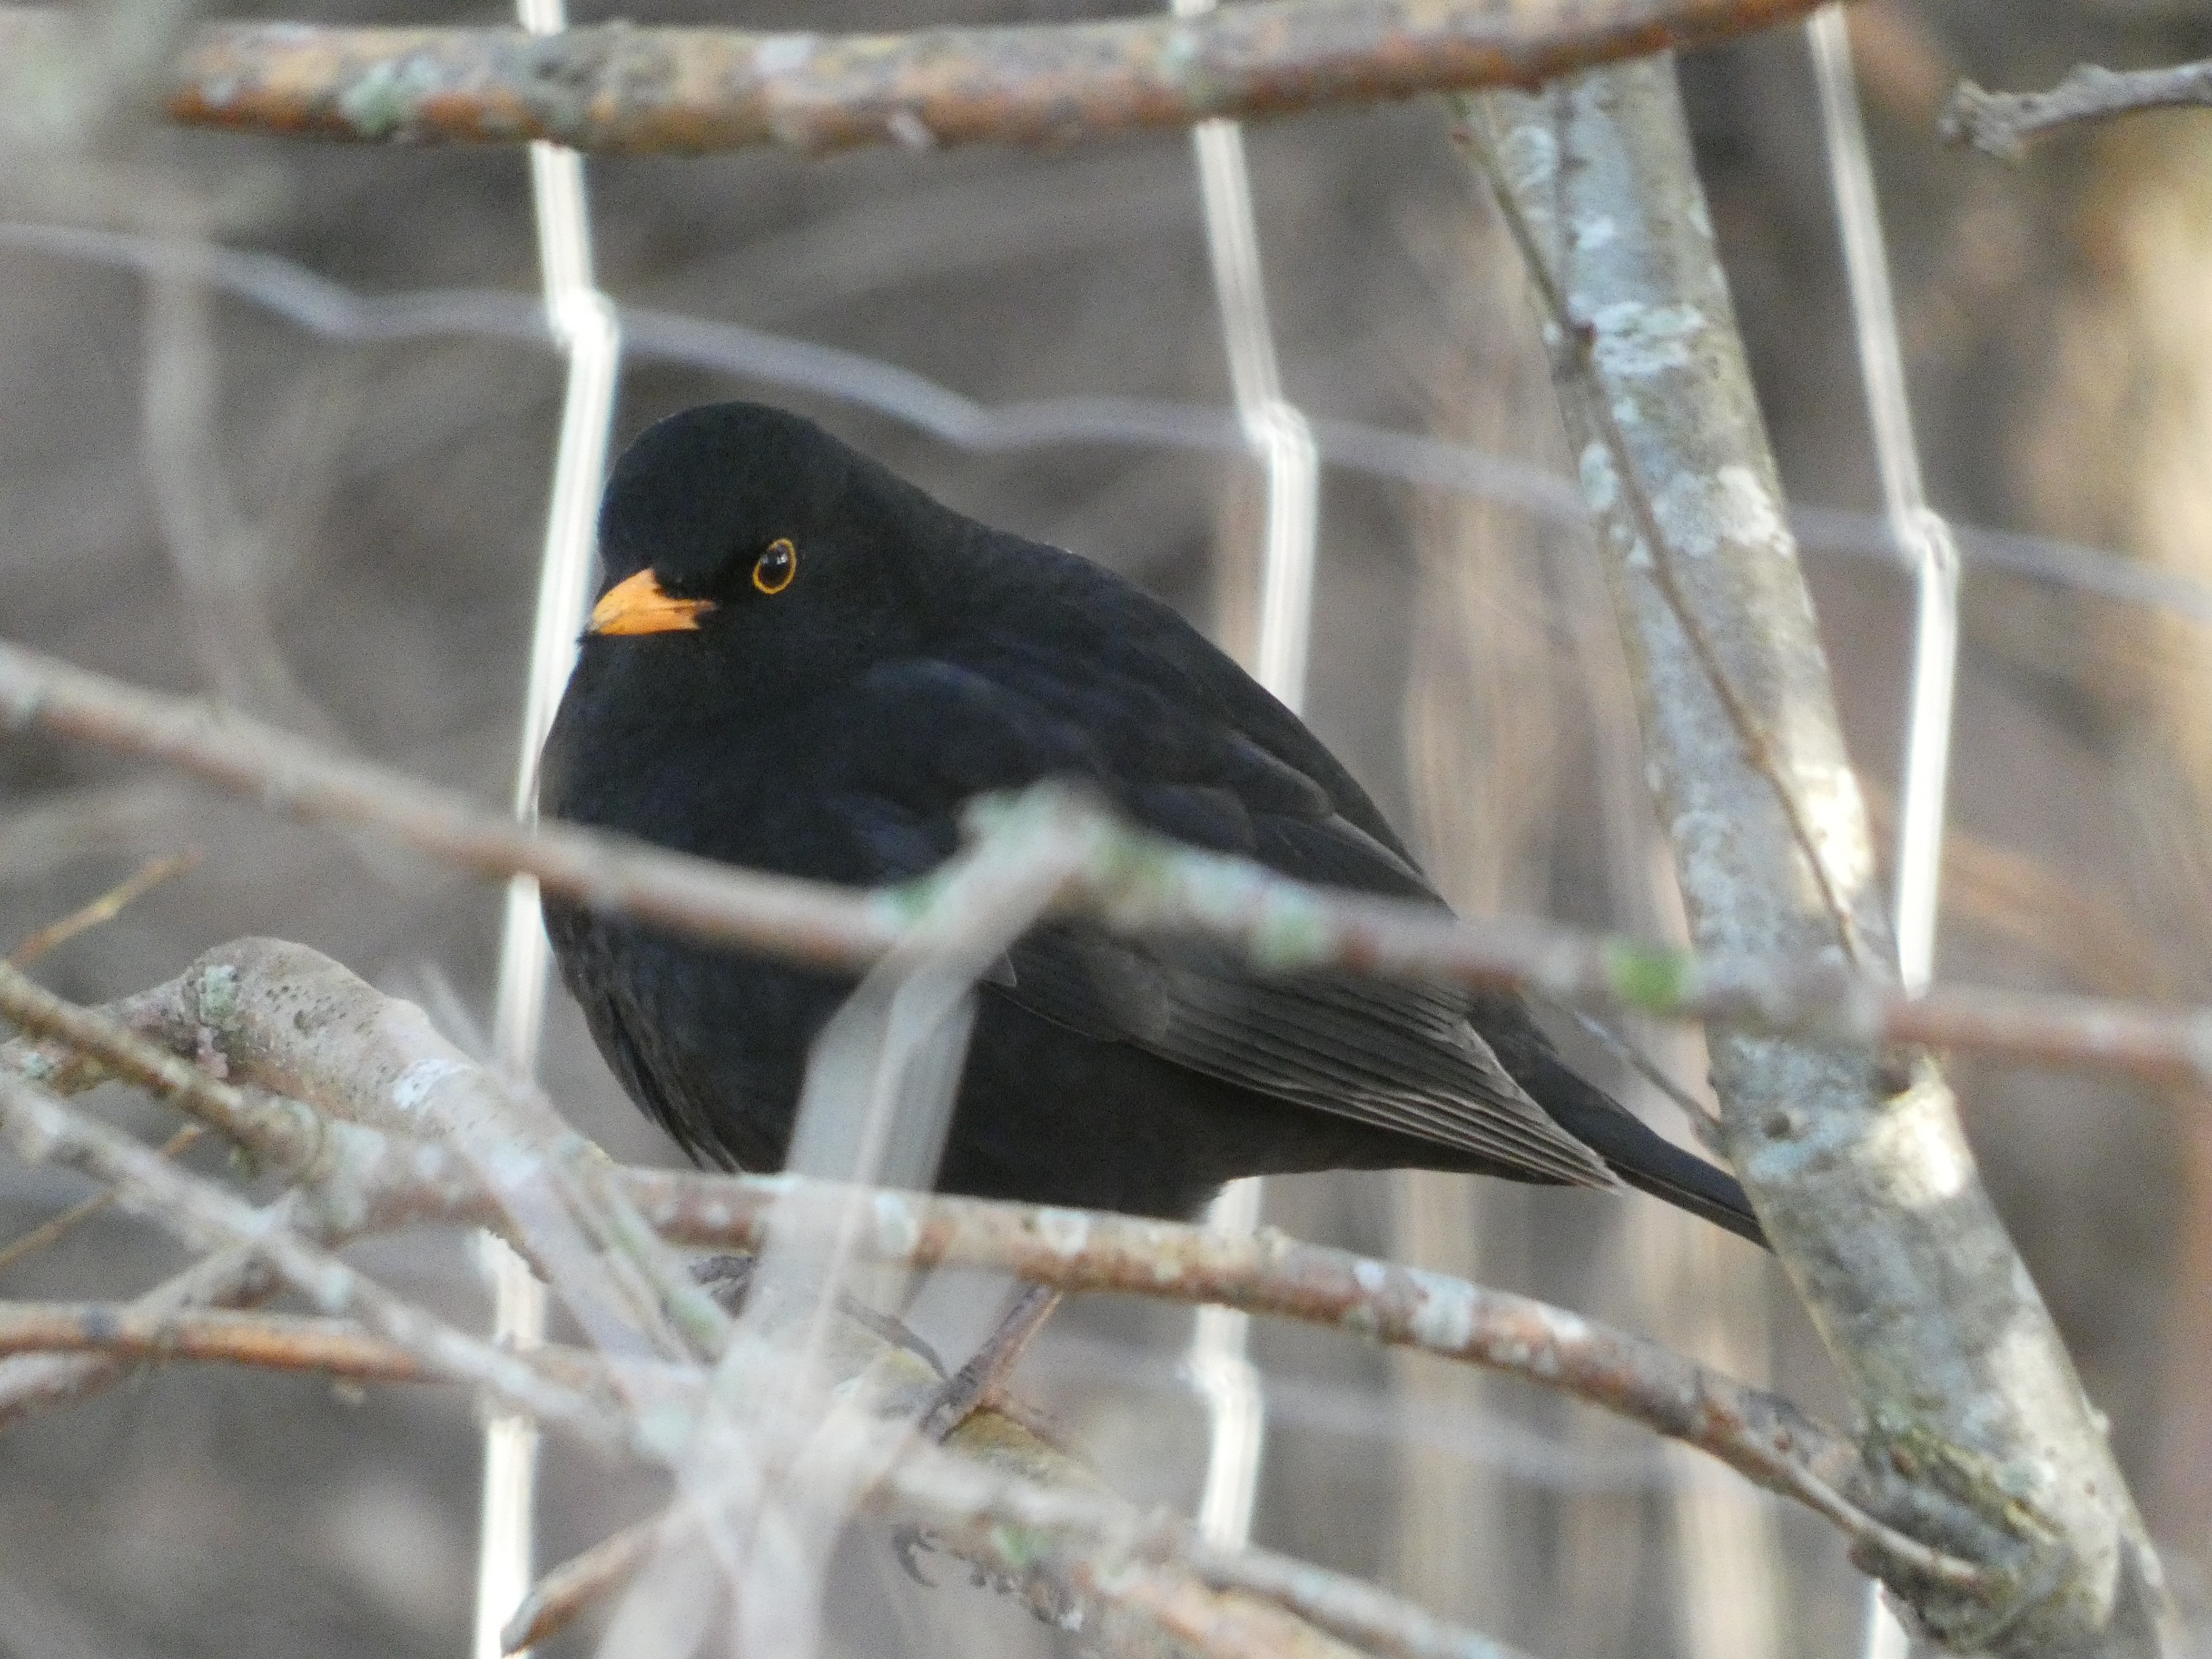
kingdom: Animalia
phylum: Chordata
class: Aves
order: Passeriformes
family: Turdidae
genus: Turdus
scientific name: Turdus merula
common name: Solsort
